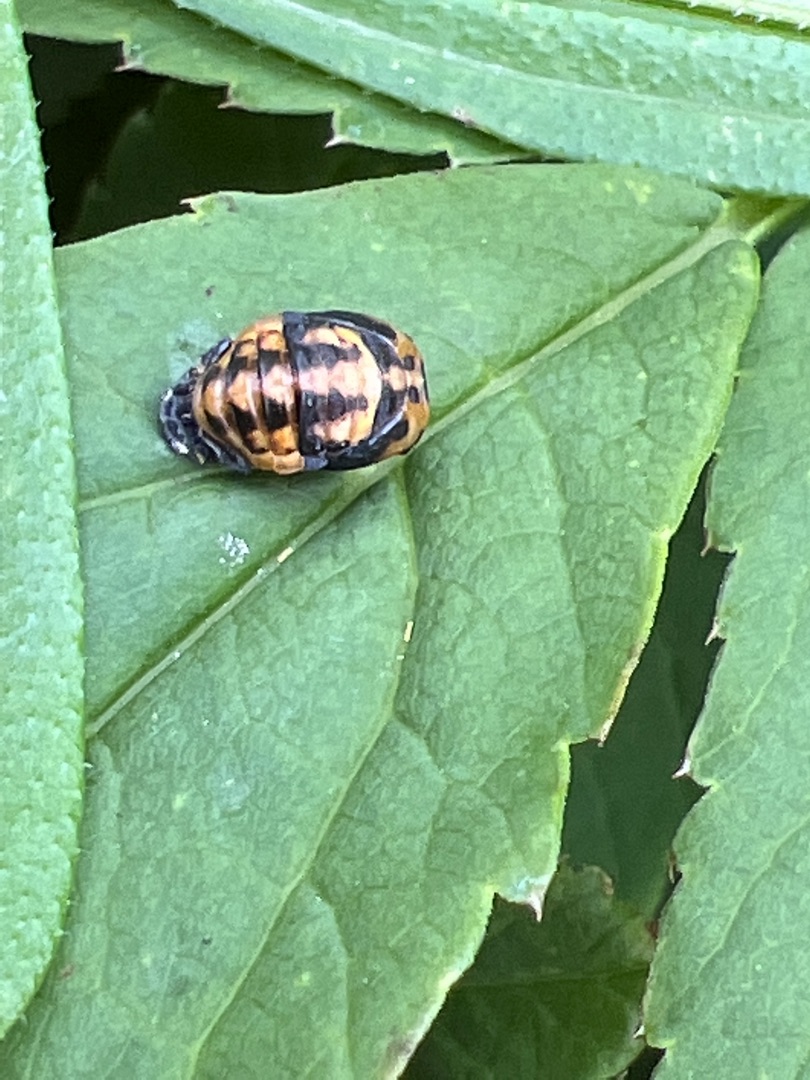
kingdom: Animalia
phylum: Arthropoda
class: Insecta
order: Coleoptera
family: Coccinellidae
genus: Harmonia
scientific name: Harmonia axyridis
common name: Harlekinmariehøne
